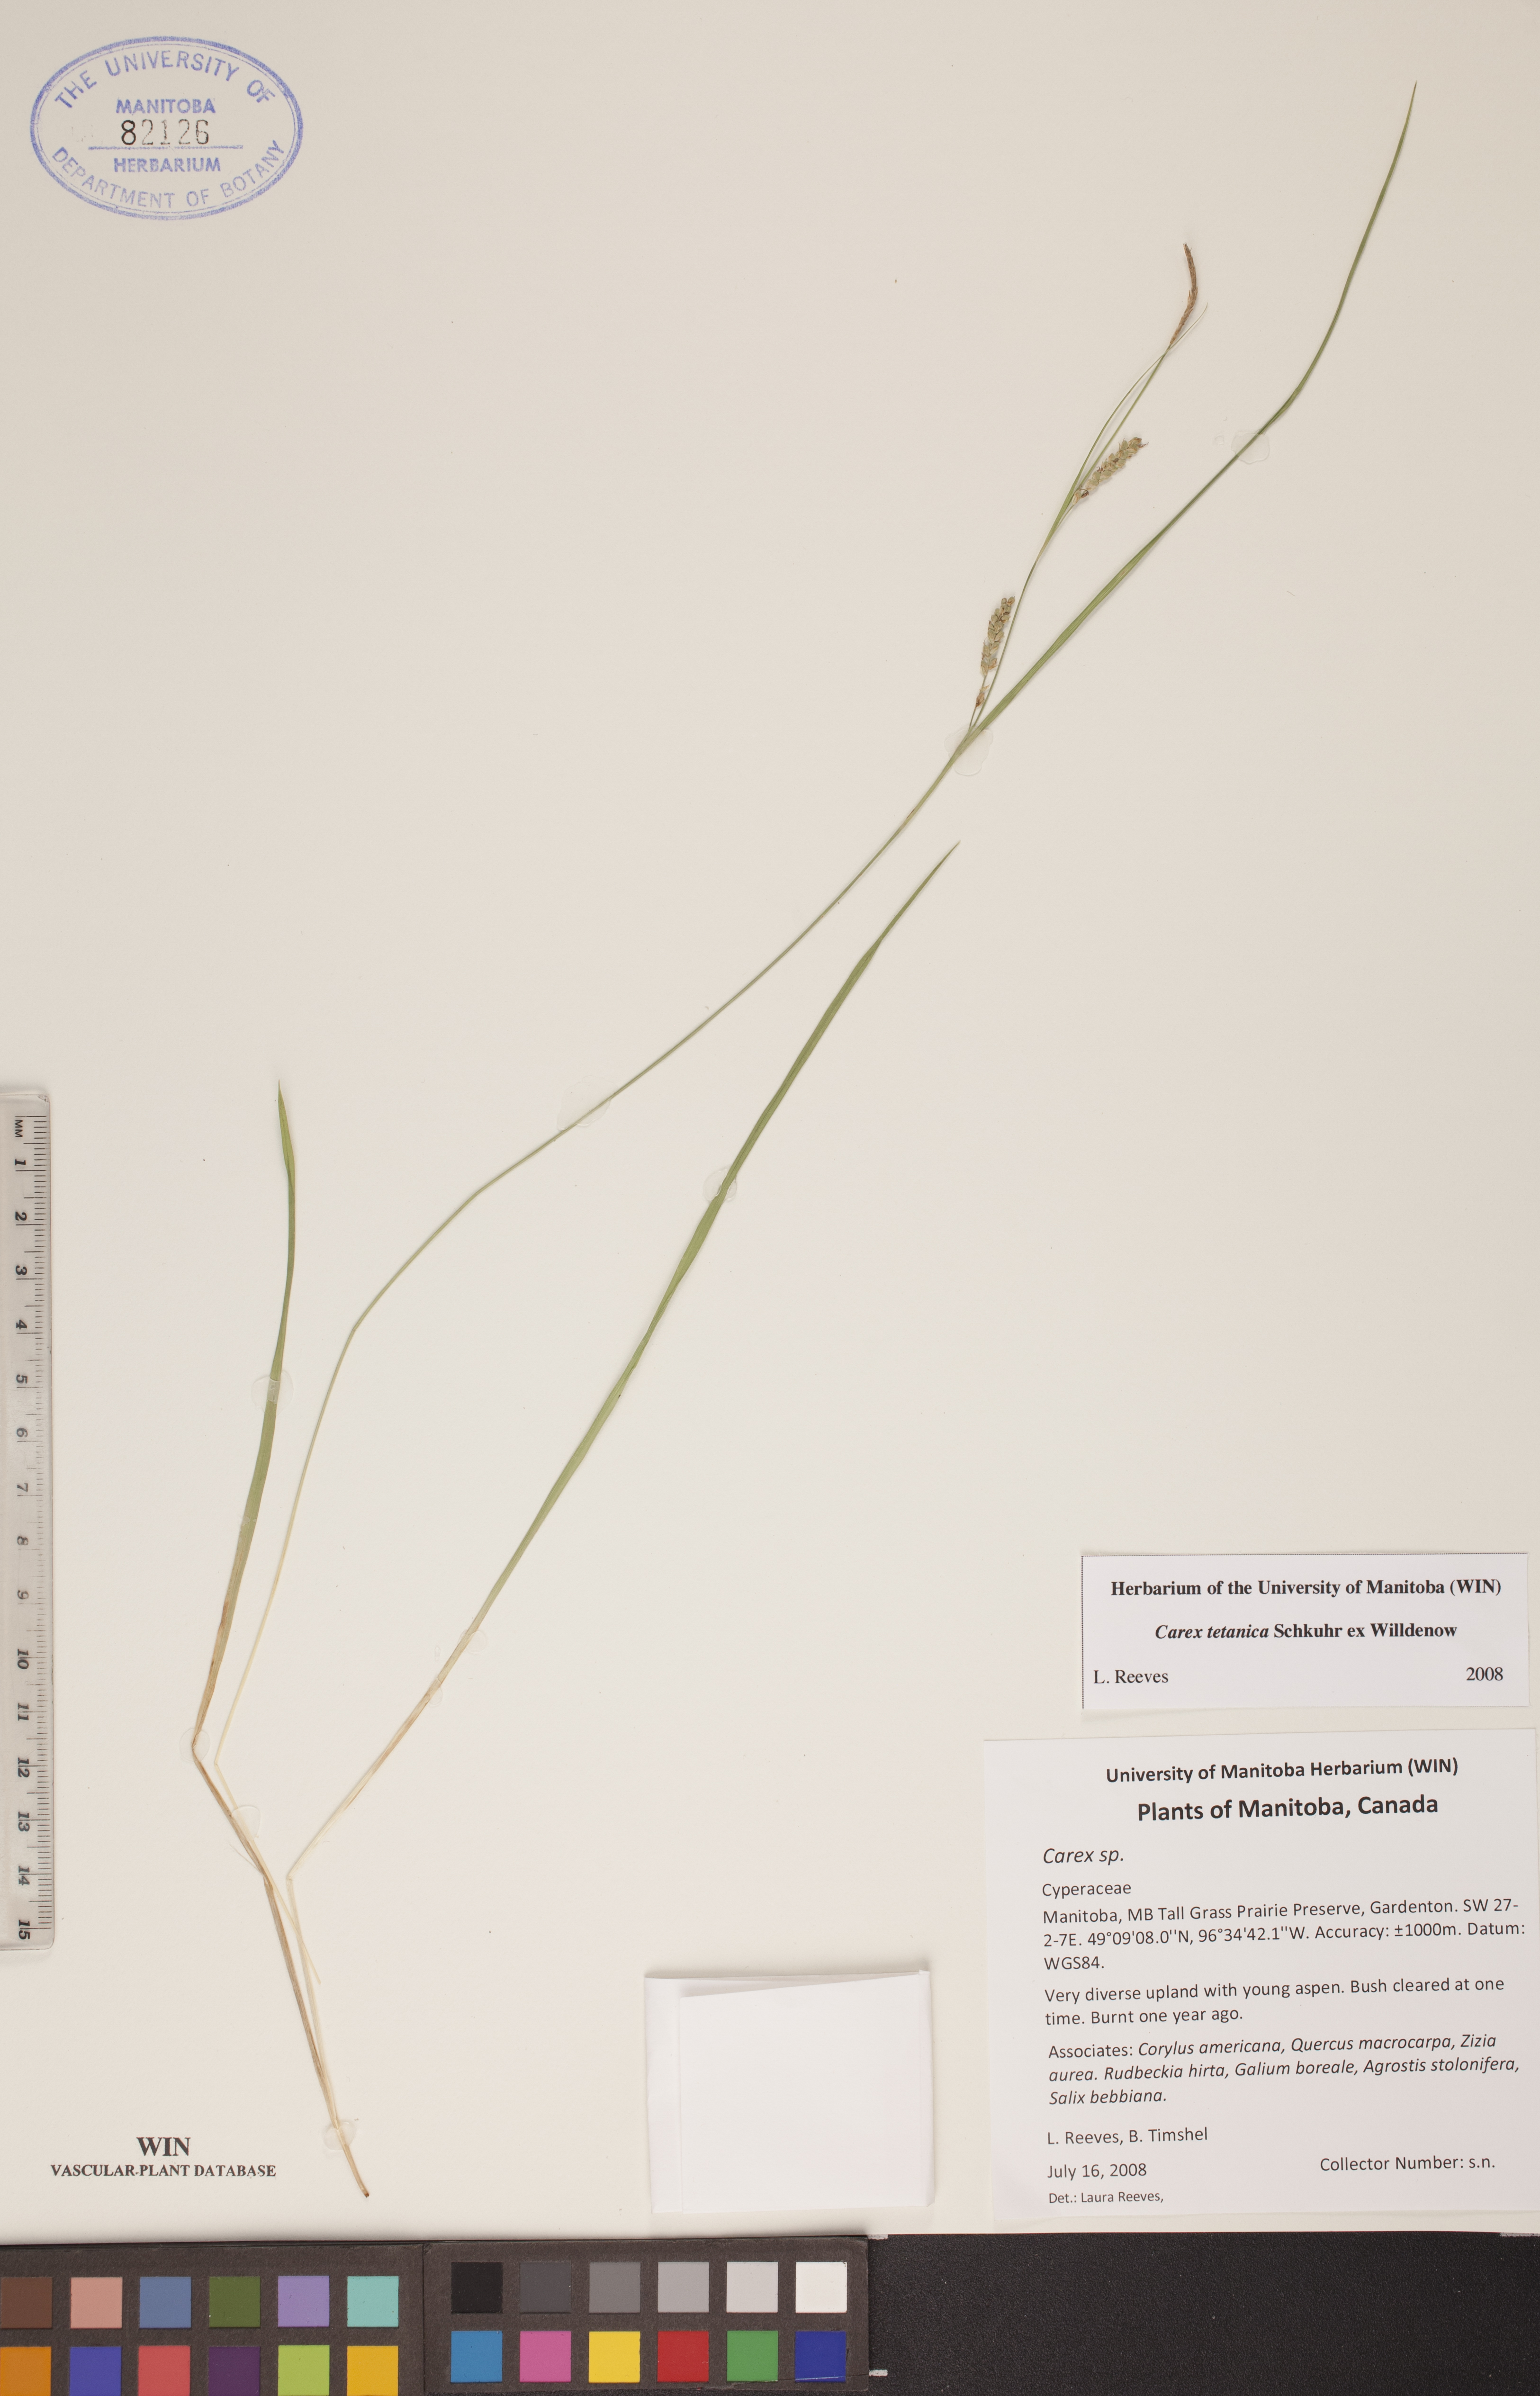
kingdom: Plantae
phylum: Tracheophyta
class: Liliopsida
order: Poales
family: Cyperaceae
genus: Carex
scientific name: Carex tetanica
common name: Rigid sedge
